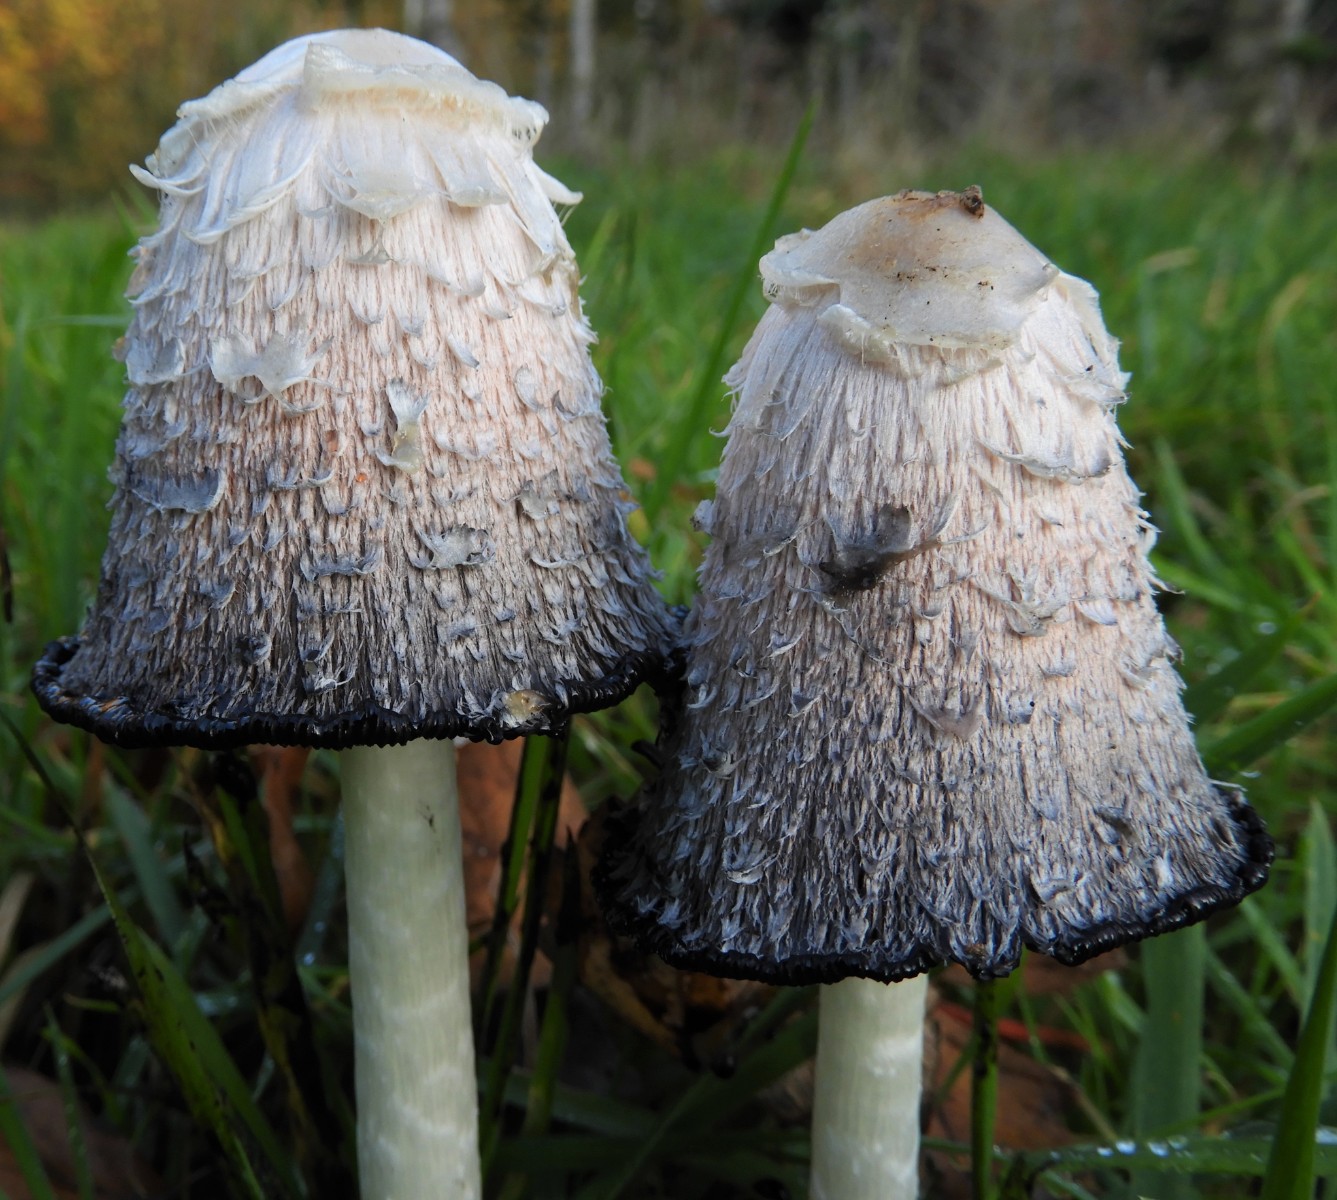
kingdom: Fungi
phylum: Basidiomycota
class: Agaricomycetes
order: Agaricales
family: Agaricaceae
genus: Coprinus
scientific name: Coprinus comatus
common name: stor parykhat
